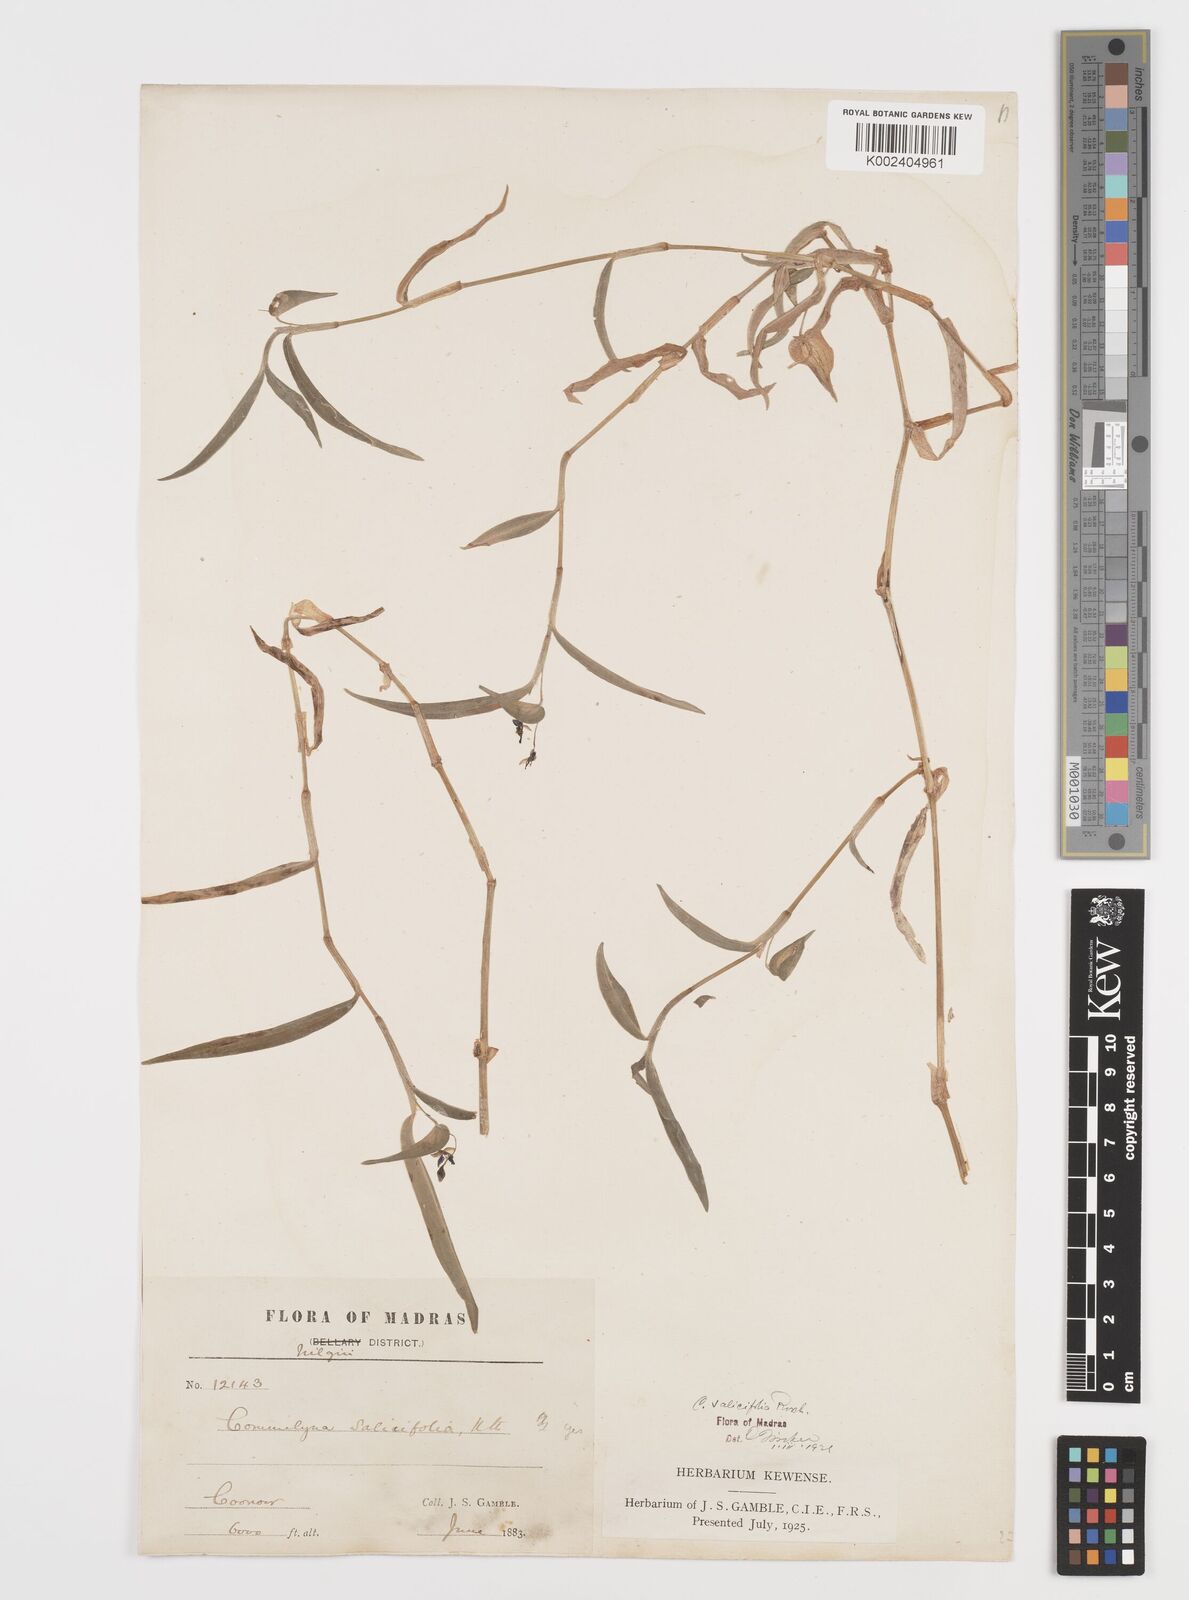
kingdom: Plantae
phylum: Tracheophyta
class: Liliopsida
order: Commelinales
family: Commelinaceae
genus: Commelina
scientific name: Commelina undulata
